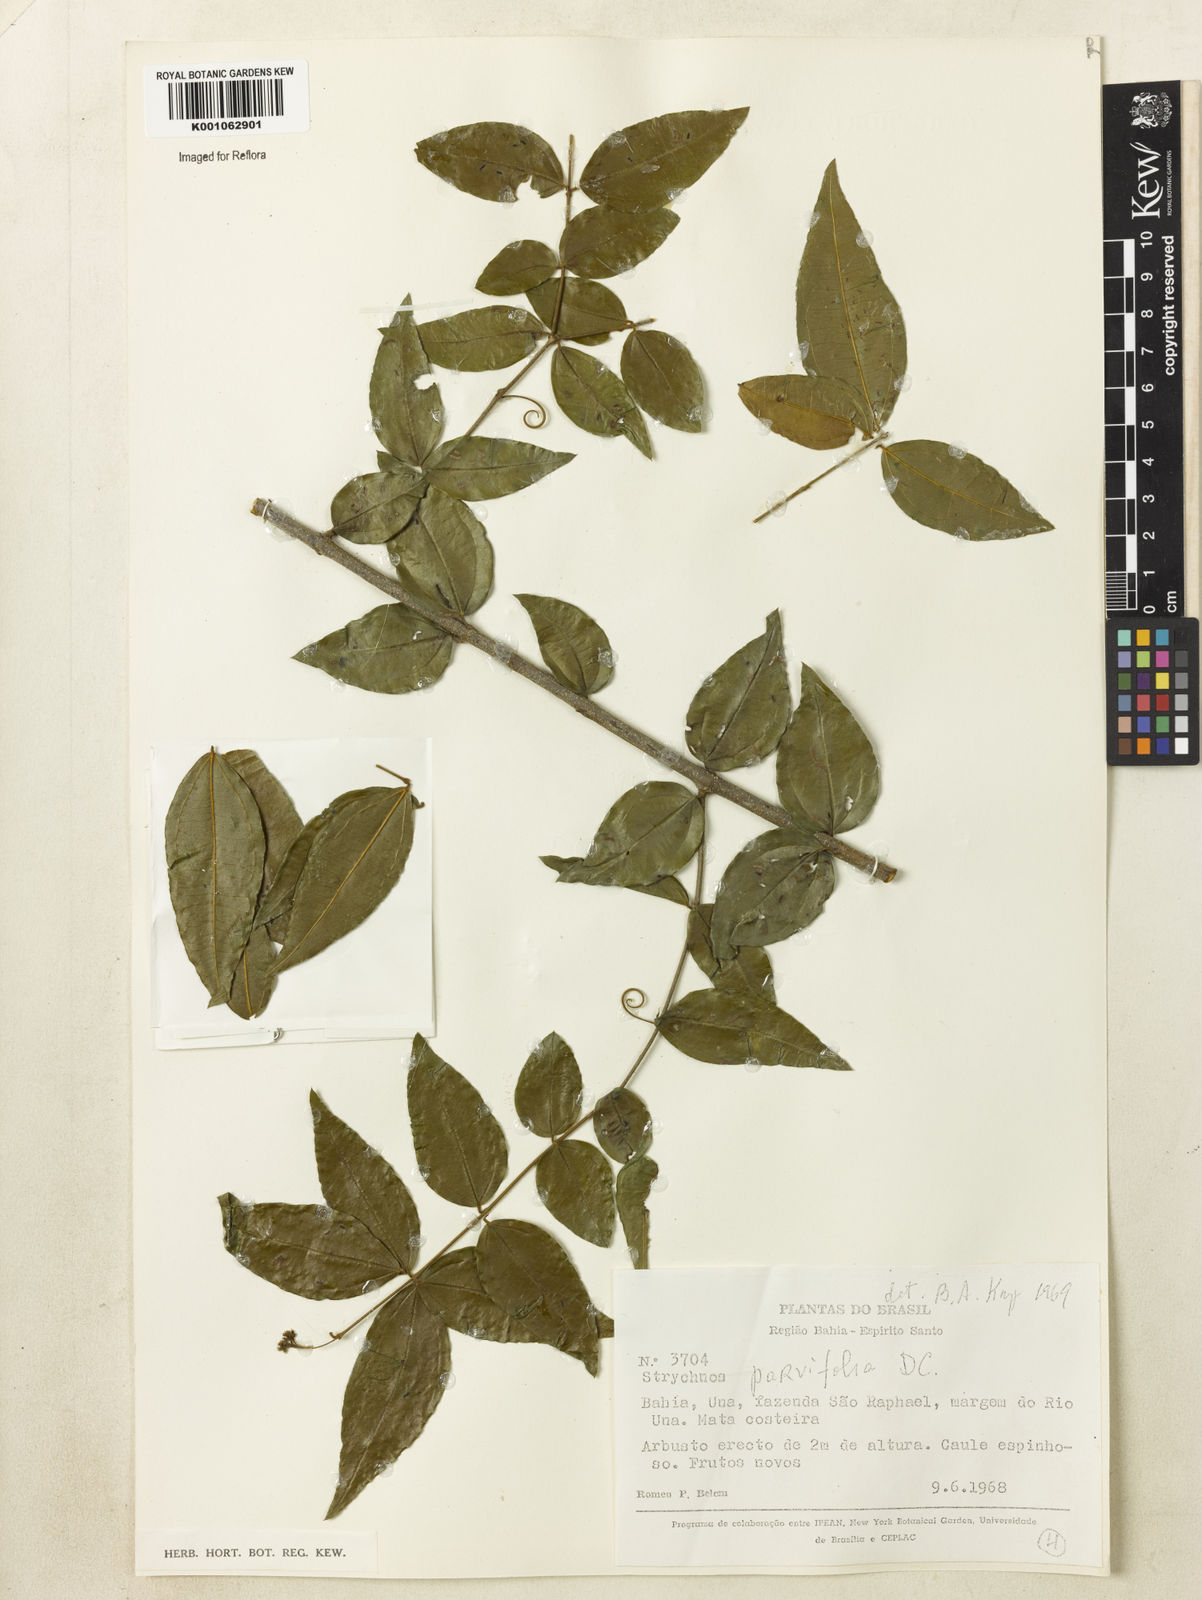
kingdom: Plantae
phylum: Tracheophyta
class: Magnoliopsida
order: Gentianales
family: Loganiaceae
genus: Strychnos
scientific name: Strychnos parvifolia
